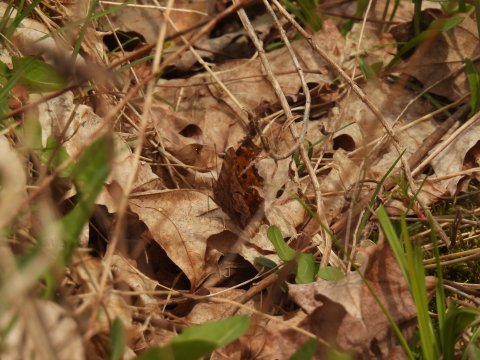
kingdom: Animalia
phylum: Arthropoda
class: Insecta
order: Lepidoptera
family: Nymphalidae
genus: Polygonia
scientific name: Polygonia comma
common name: Eastern Comma
